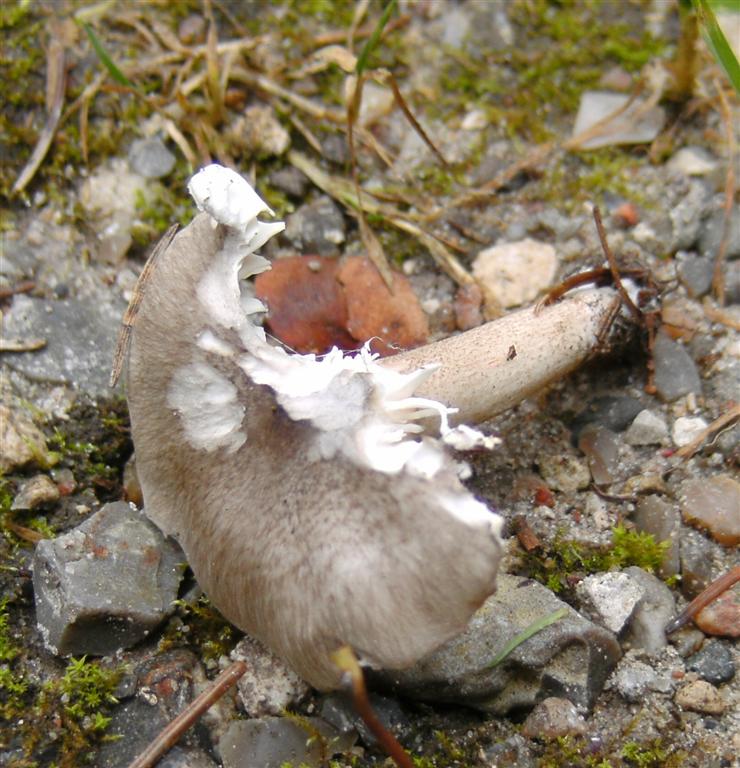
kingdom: Fungi
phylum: Basidiomycota
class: Agaricomycetes
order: Agaricales
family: Hygrophoraceae
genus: Hygrophorus
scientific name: Hygrophorus pustulatus
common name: mørkprikket sneglehat
